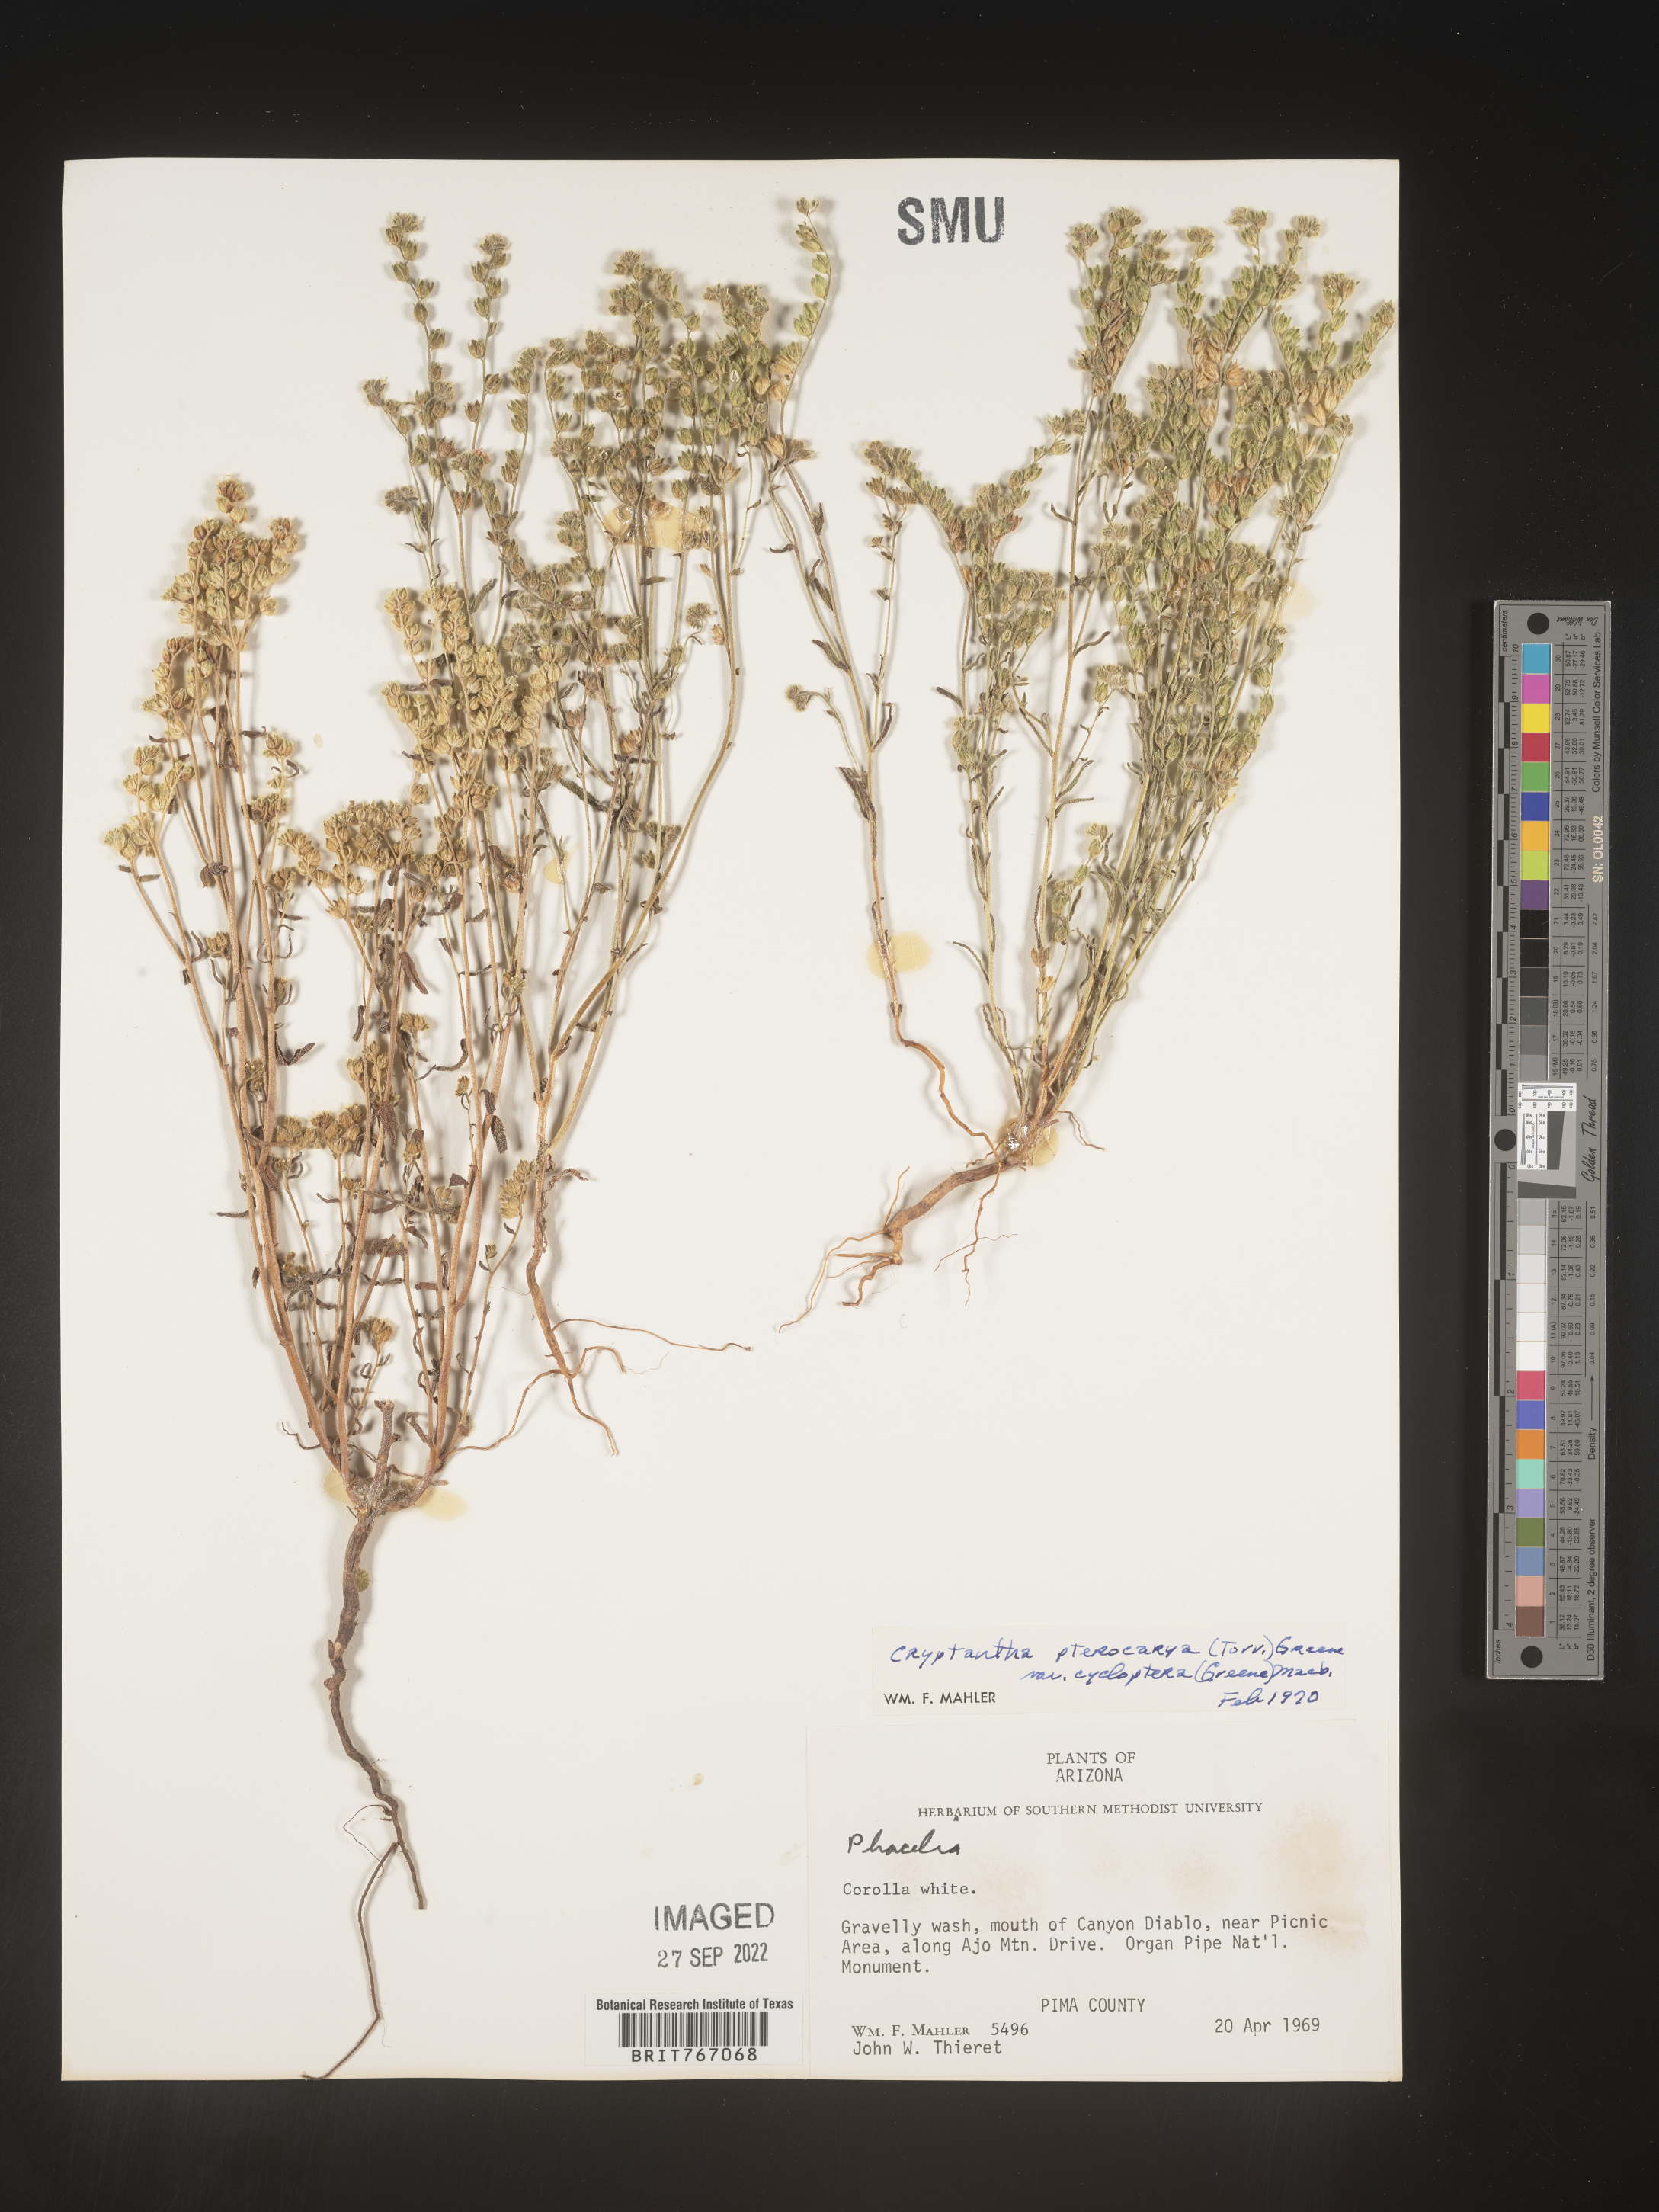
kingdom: Plantae
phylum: Tracheophyta
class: Magnoliopsida
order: Boraginales
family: Boraginaceae
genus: Cryptantha
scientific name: Cryptantha pterocarya
